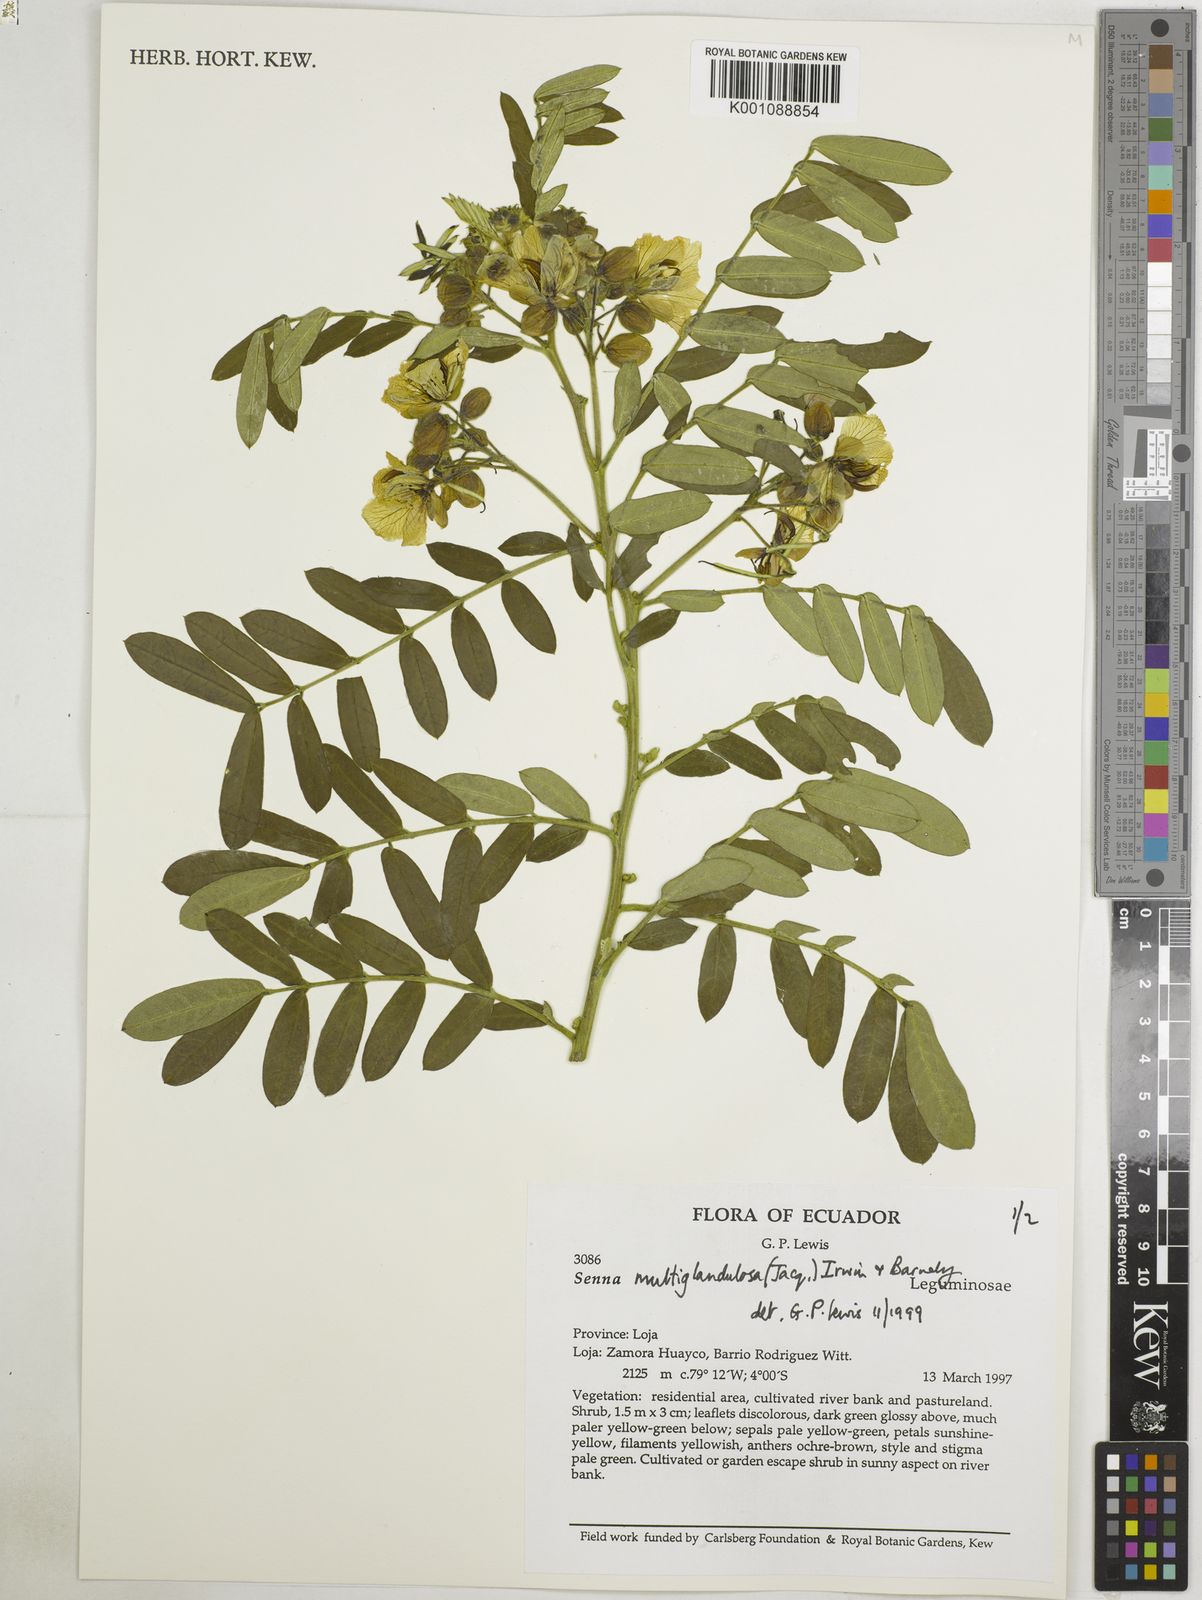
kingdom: Plantae
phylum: Tracheophyta
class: Magnoliopsida
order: Fabales
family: Fabaceae
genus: Senna
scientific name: Senna multiglandulosa
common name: Glandular senna
